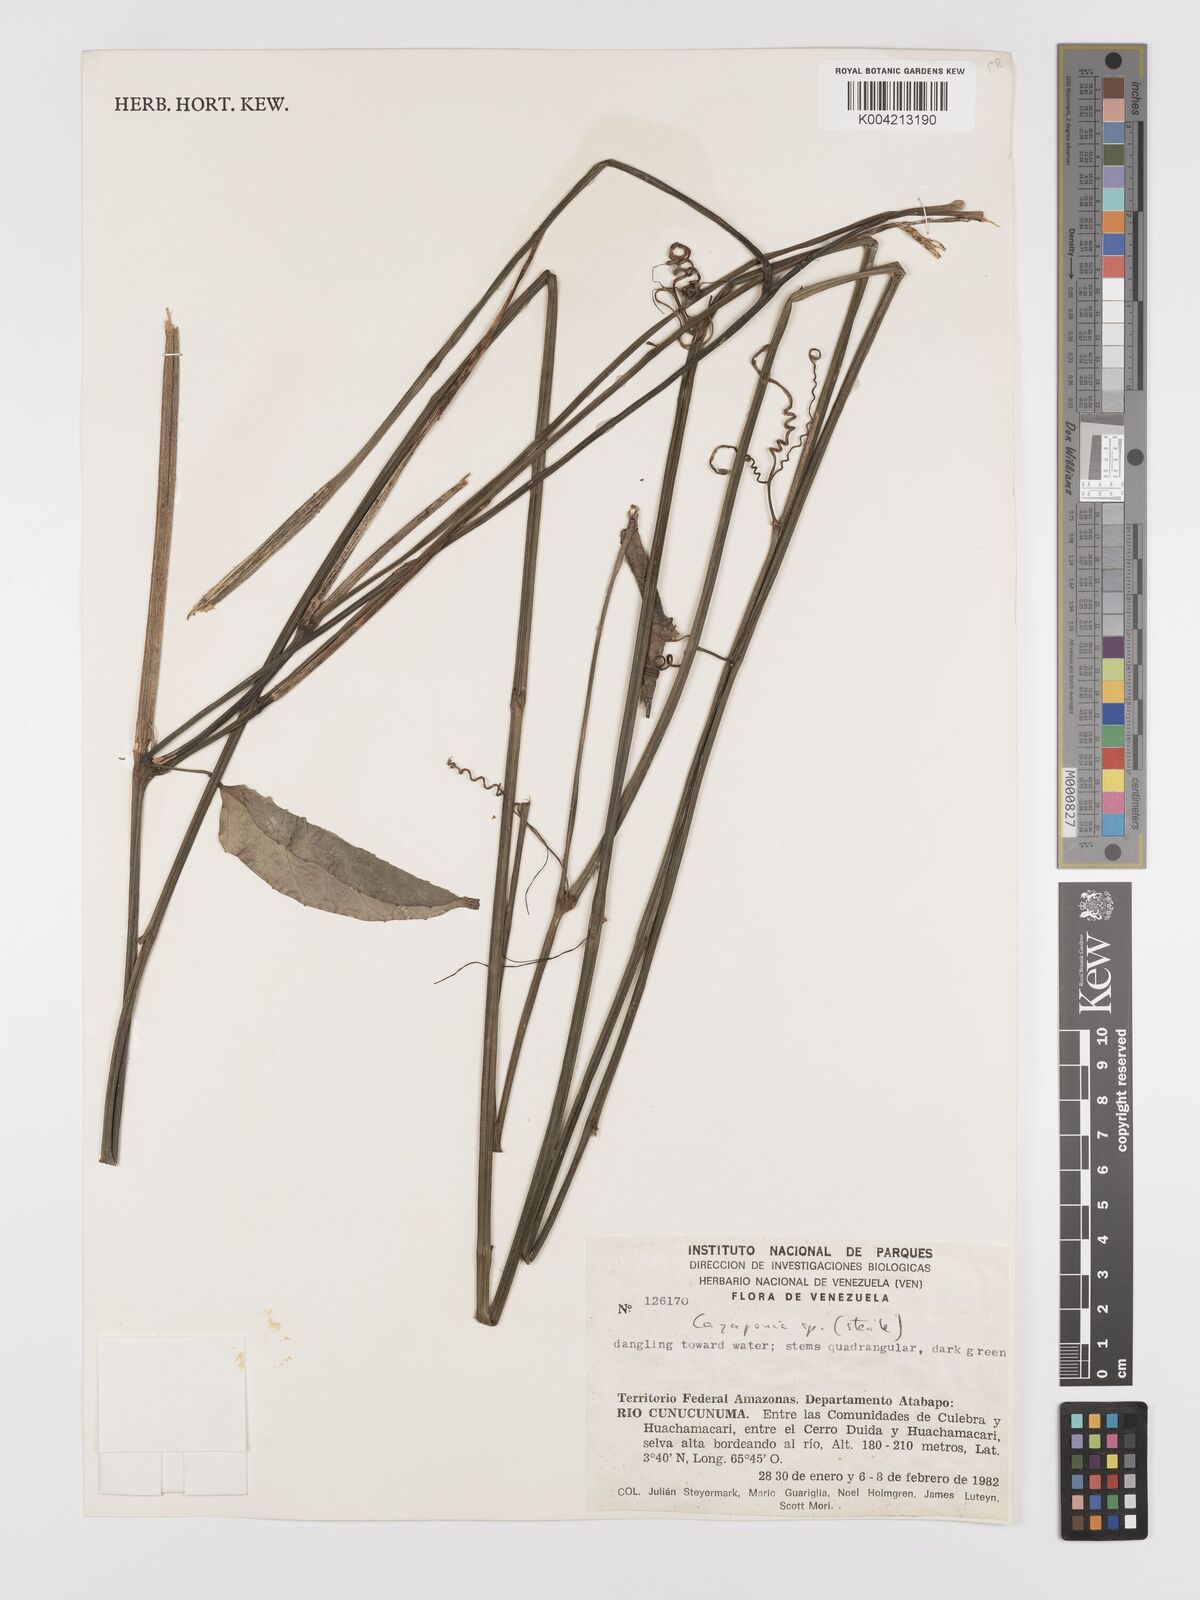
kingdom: Plantae
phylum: Tracheophyta
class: Magnoliopsida
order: Cucurbitales
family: Cucurbitaceae
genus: Cayaponia
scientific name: Cayaponia prunifera
